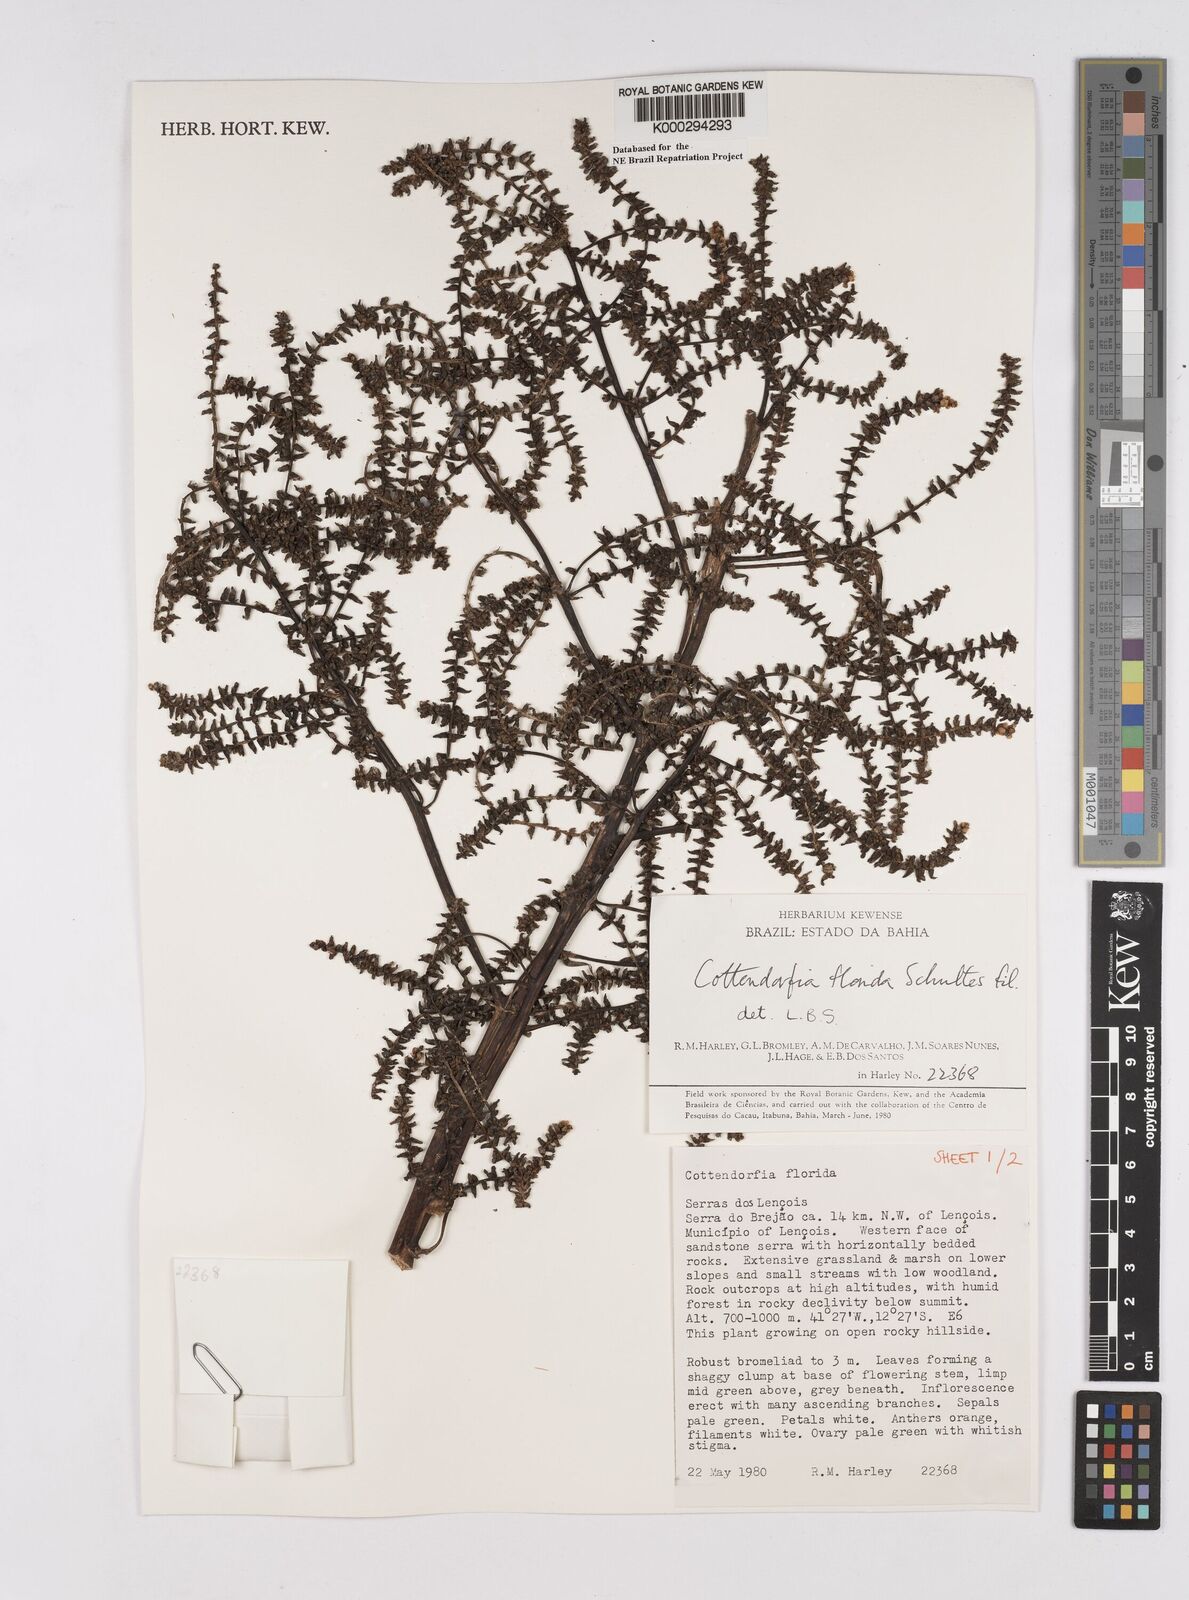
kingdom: Plantae
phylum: Tracheophyta
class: Liliopsida
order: Poales
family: Bromeliaceae
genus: Cottendorfia
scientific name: Cottendorfia florida
